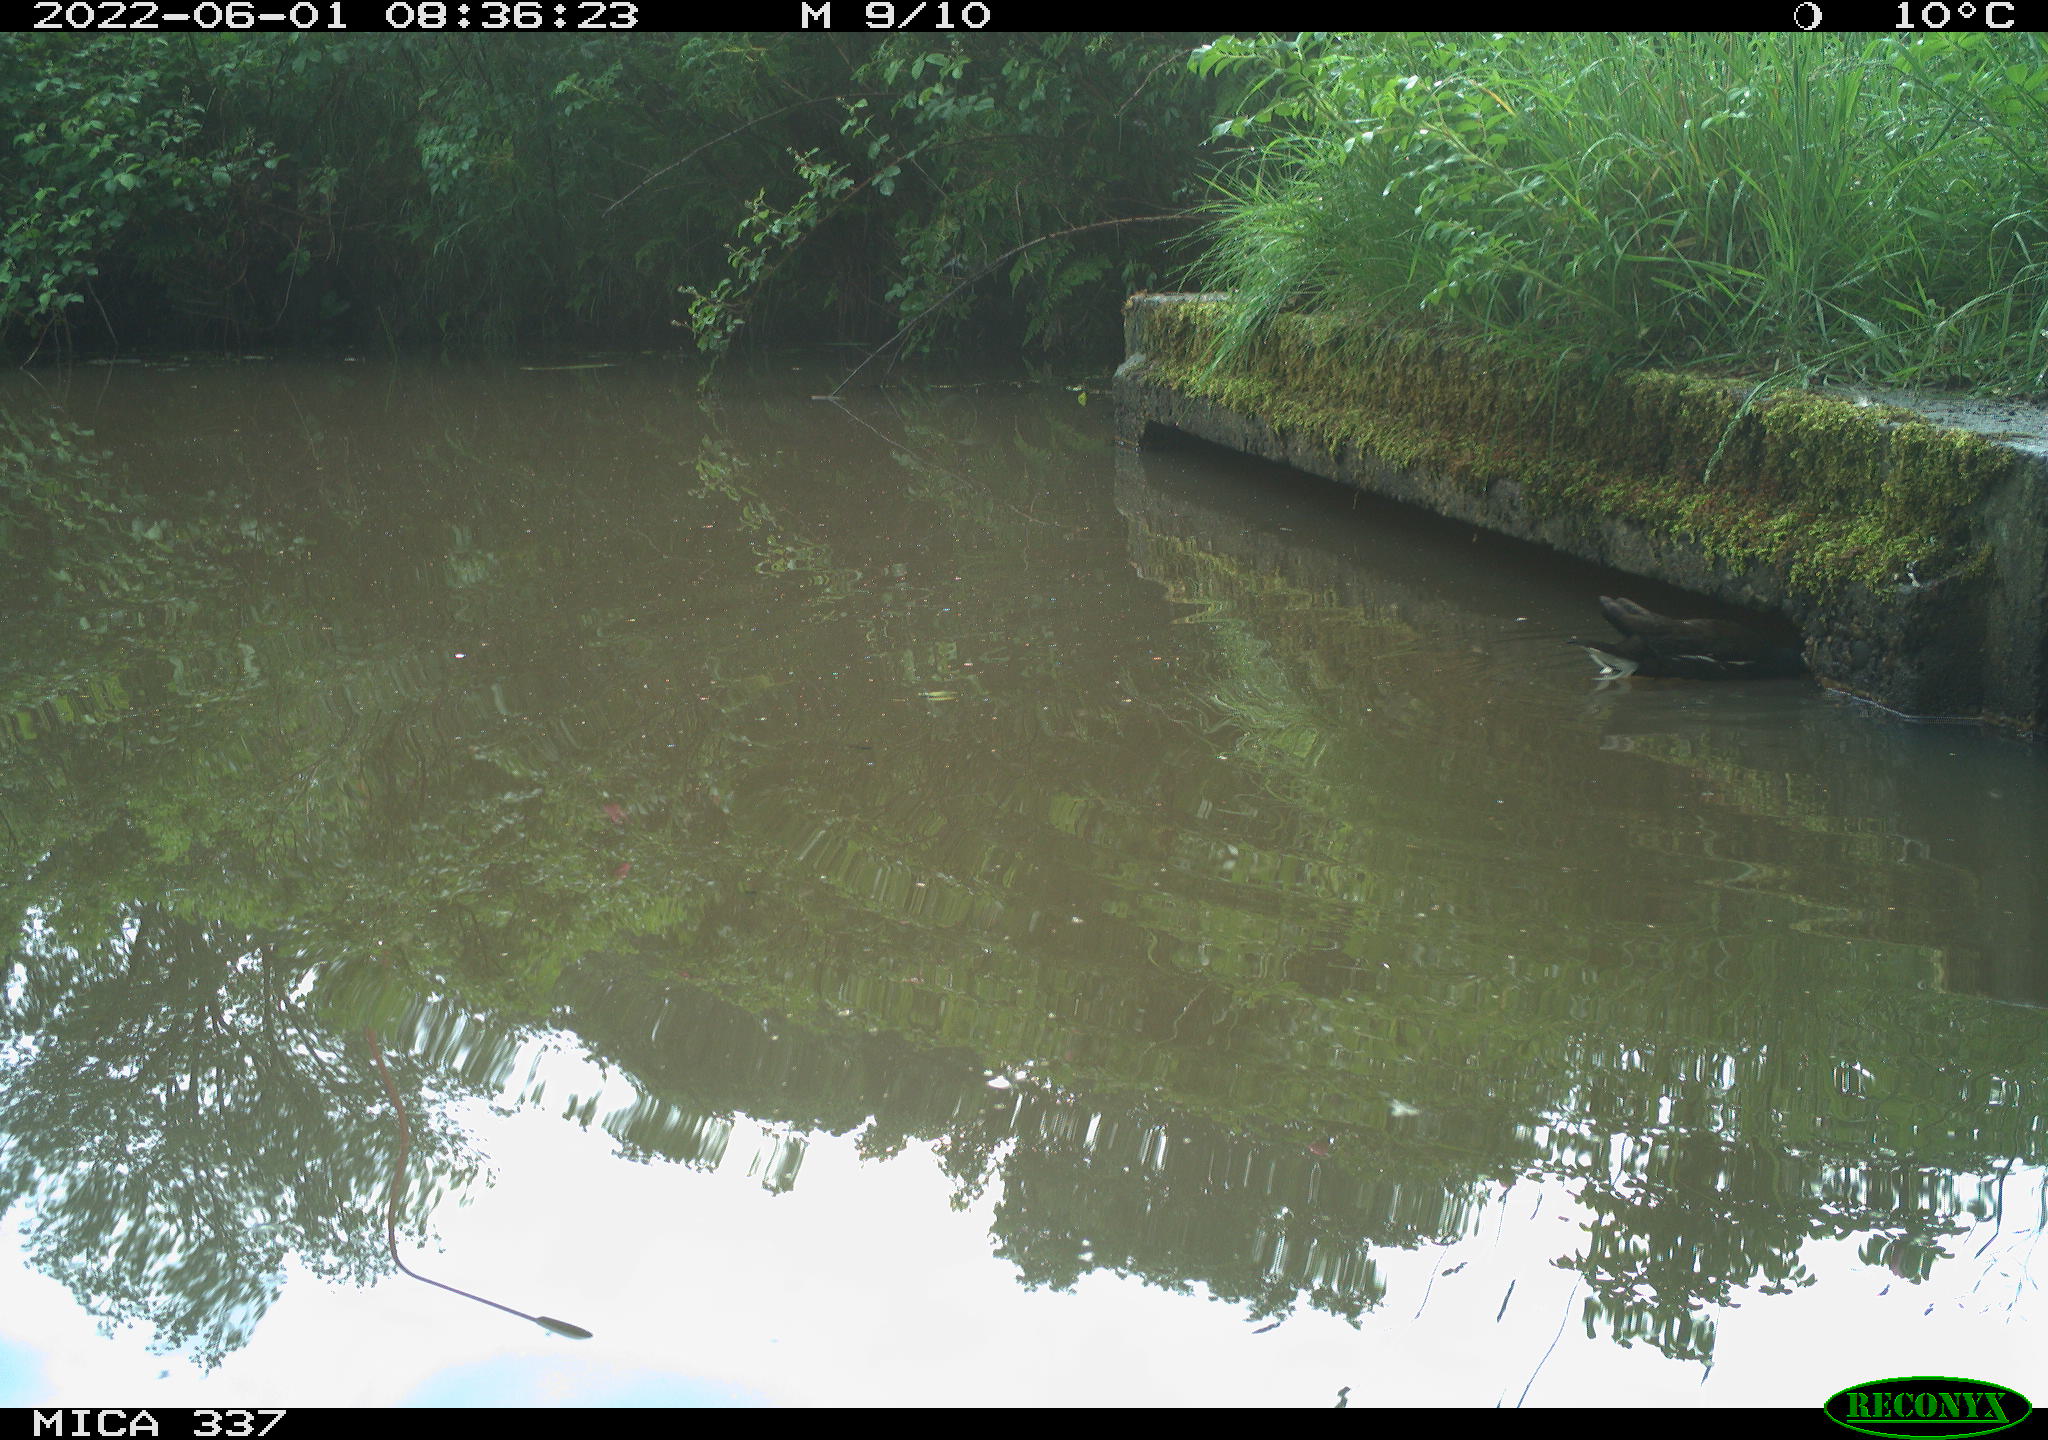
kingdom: Animalia
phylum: Chordata
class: Aves
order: Gruiformes
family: Rallidae
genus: Gallinula
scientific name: Gallinula chloropus
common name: Common moorhen
